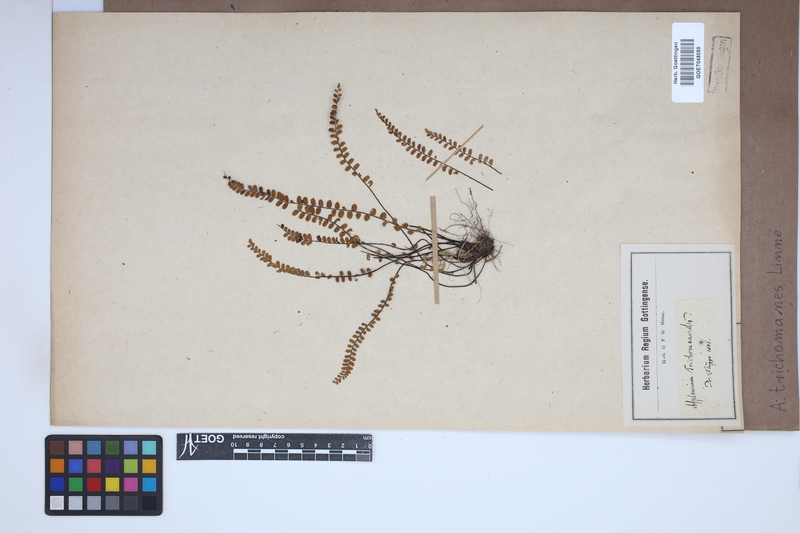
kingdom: Plantae
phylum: Tracheophyta
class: Polypodiopsida
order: Polypodiales
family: Aspleniaceae
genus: Asplenium
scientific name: Asplenium trichomanes
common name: Maidenhair spleenwort
